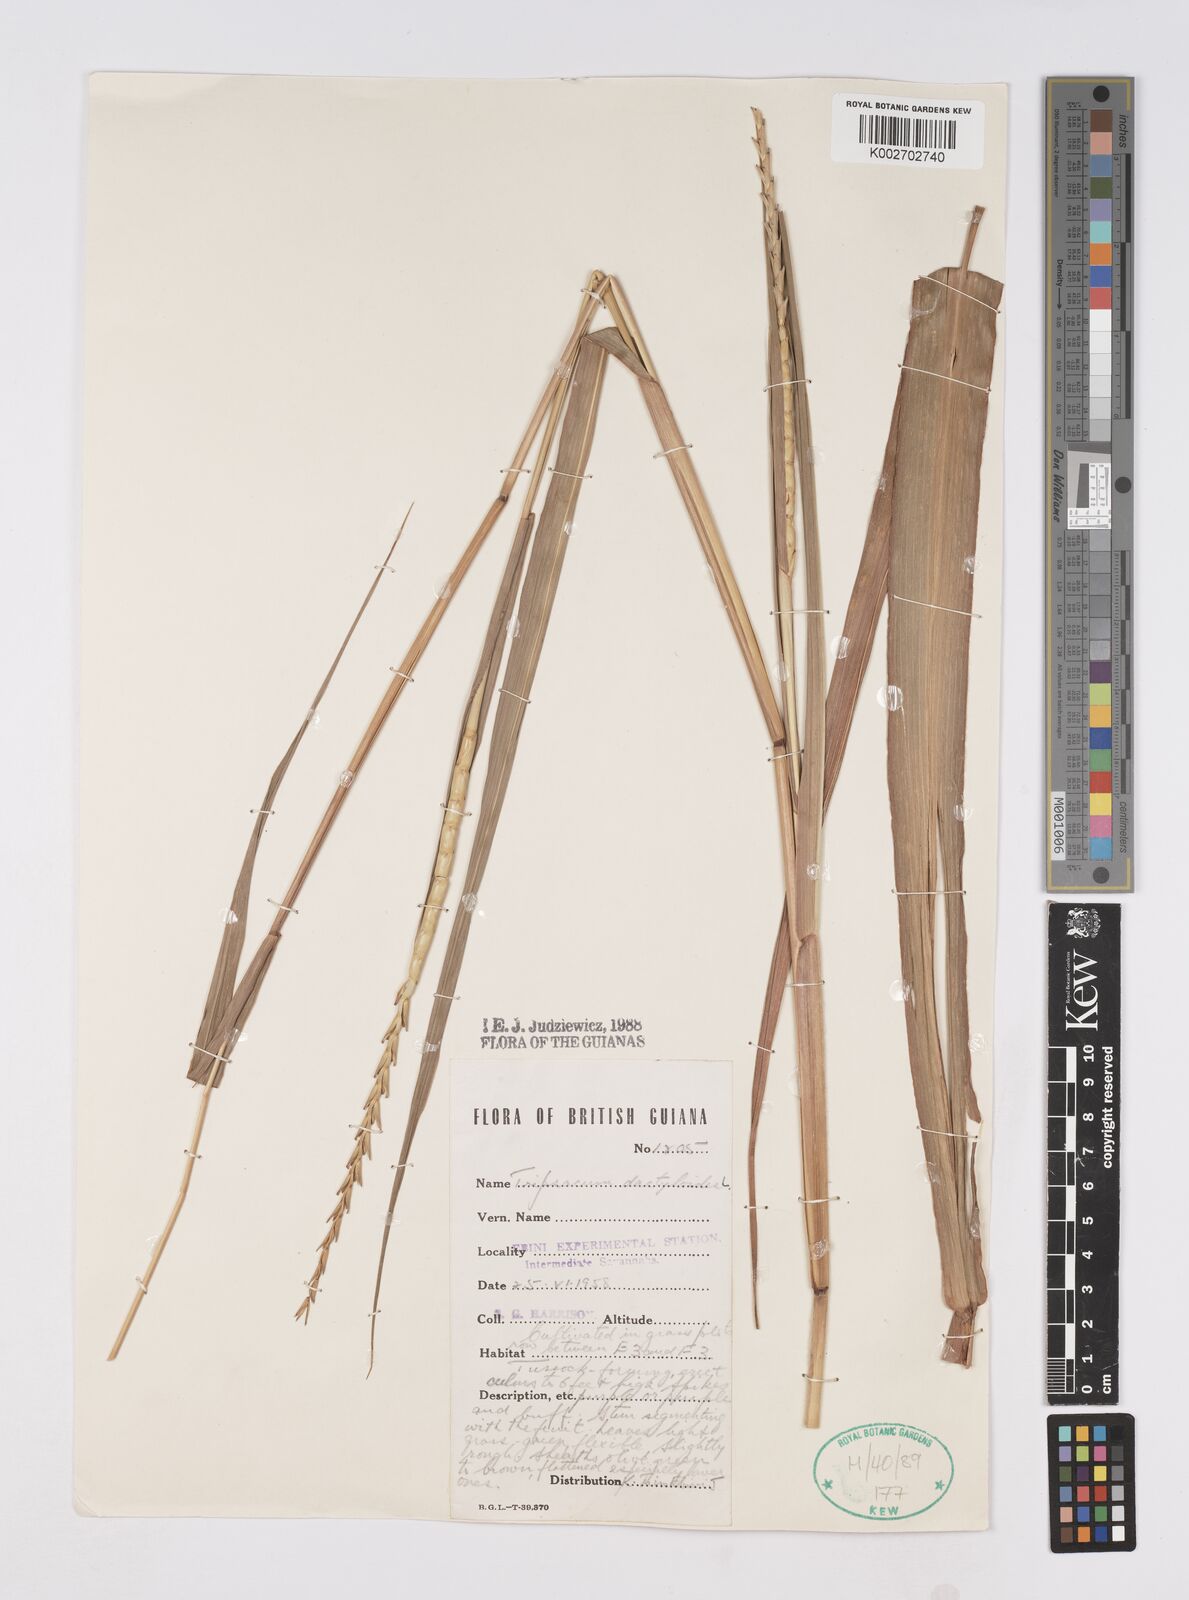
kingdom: Plantae
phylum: Tracheophyta
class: Liliopsida
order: Poales
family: Poaceae
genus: Tripsacum
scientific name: Tripsacum dactyloides
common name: Buffalo-grass
